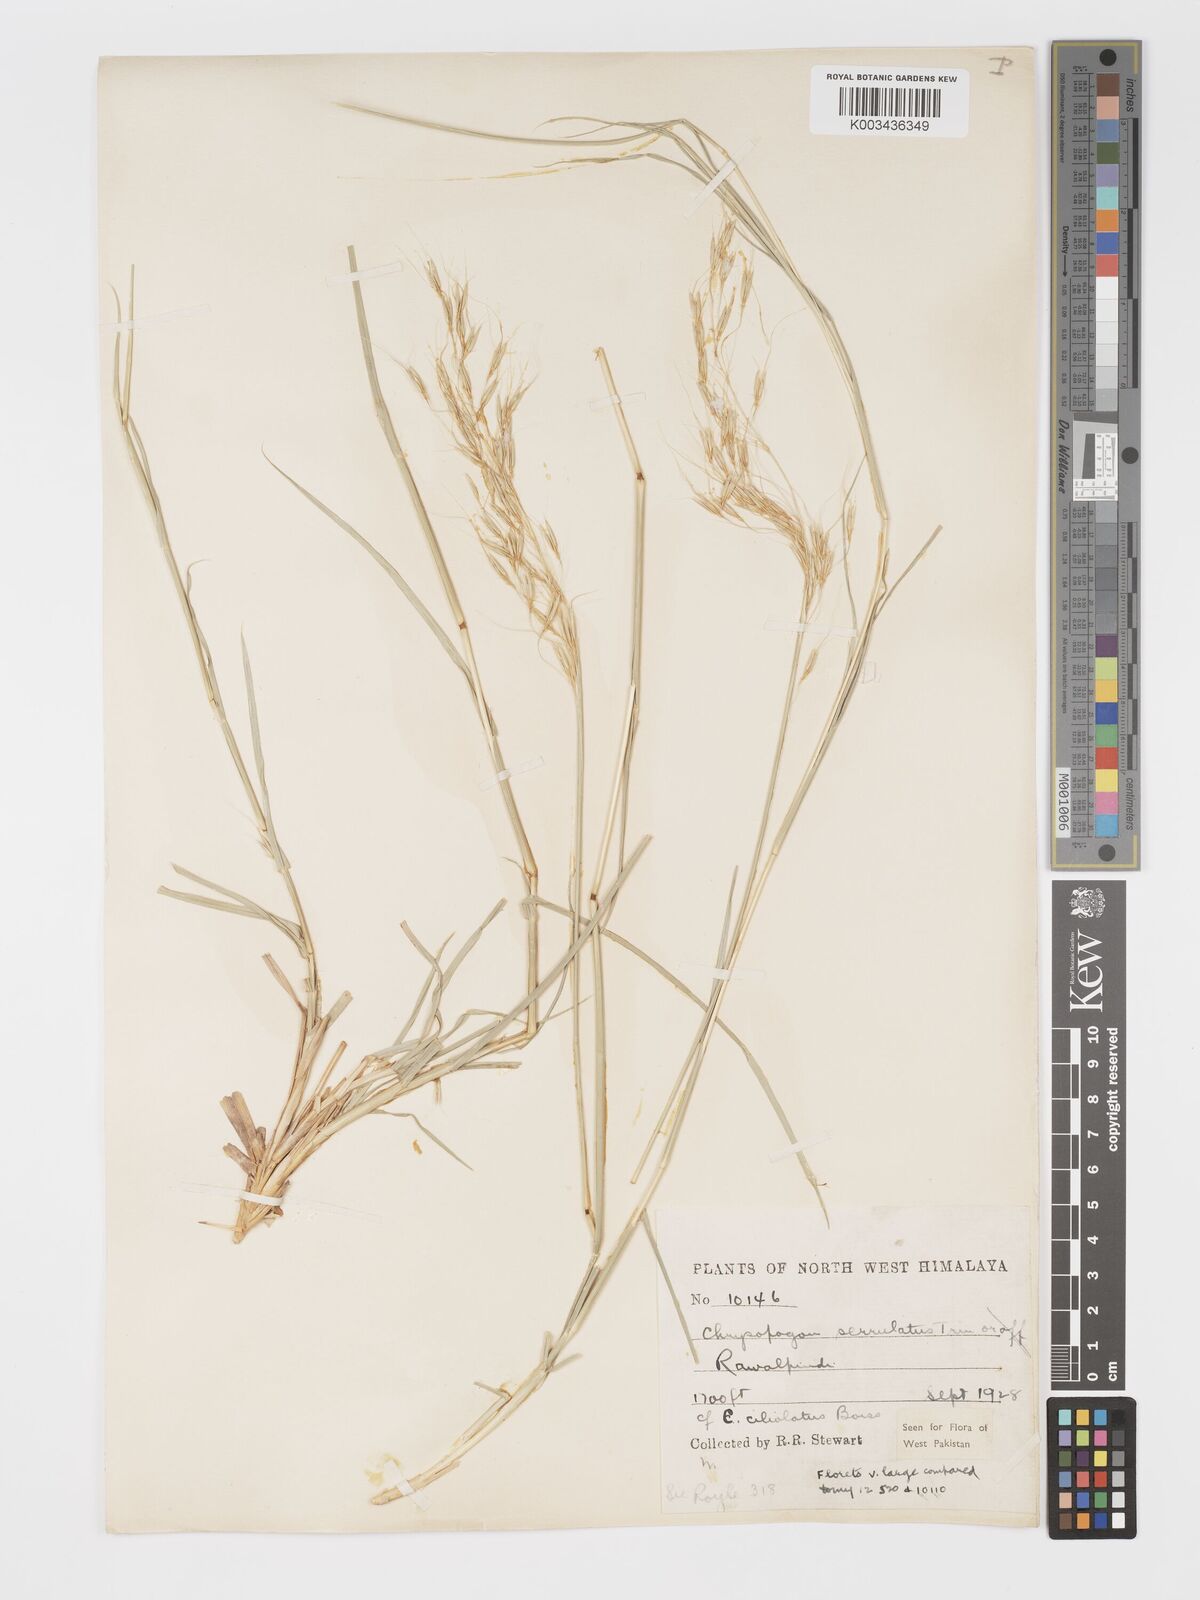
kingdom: Plantae
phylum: Tracheophyta
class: Liliopsida
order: Poales
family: Poaceae
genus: Chrysopogon
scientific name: Chrysopogon serrulatus
